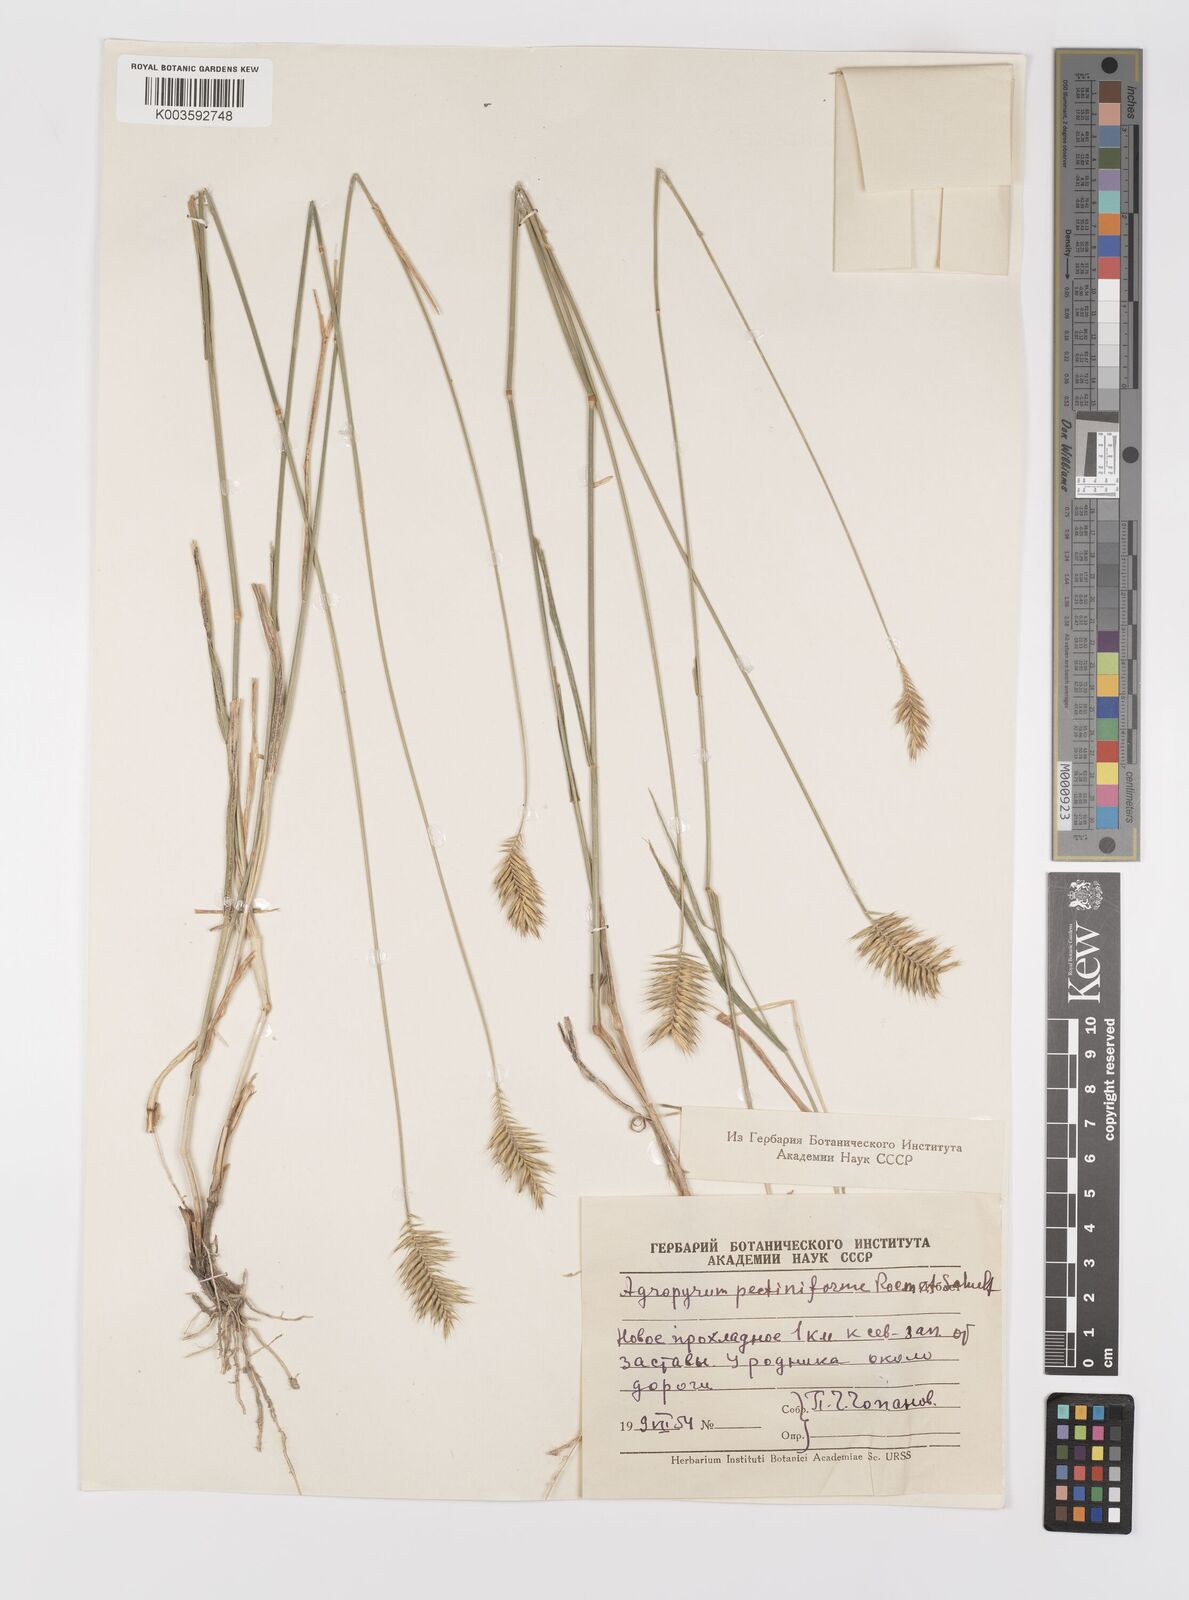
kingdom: Plantae
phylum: Tracheophyta
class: Liliopsida
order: Poales
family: Poaceae
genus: Agropyron
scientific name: Agropyron cristatum
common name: Crested wheatgrass
